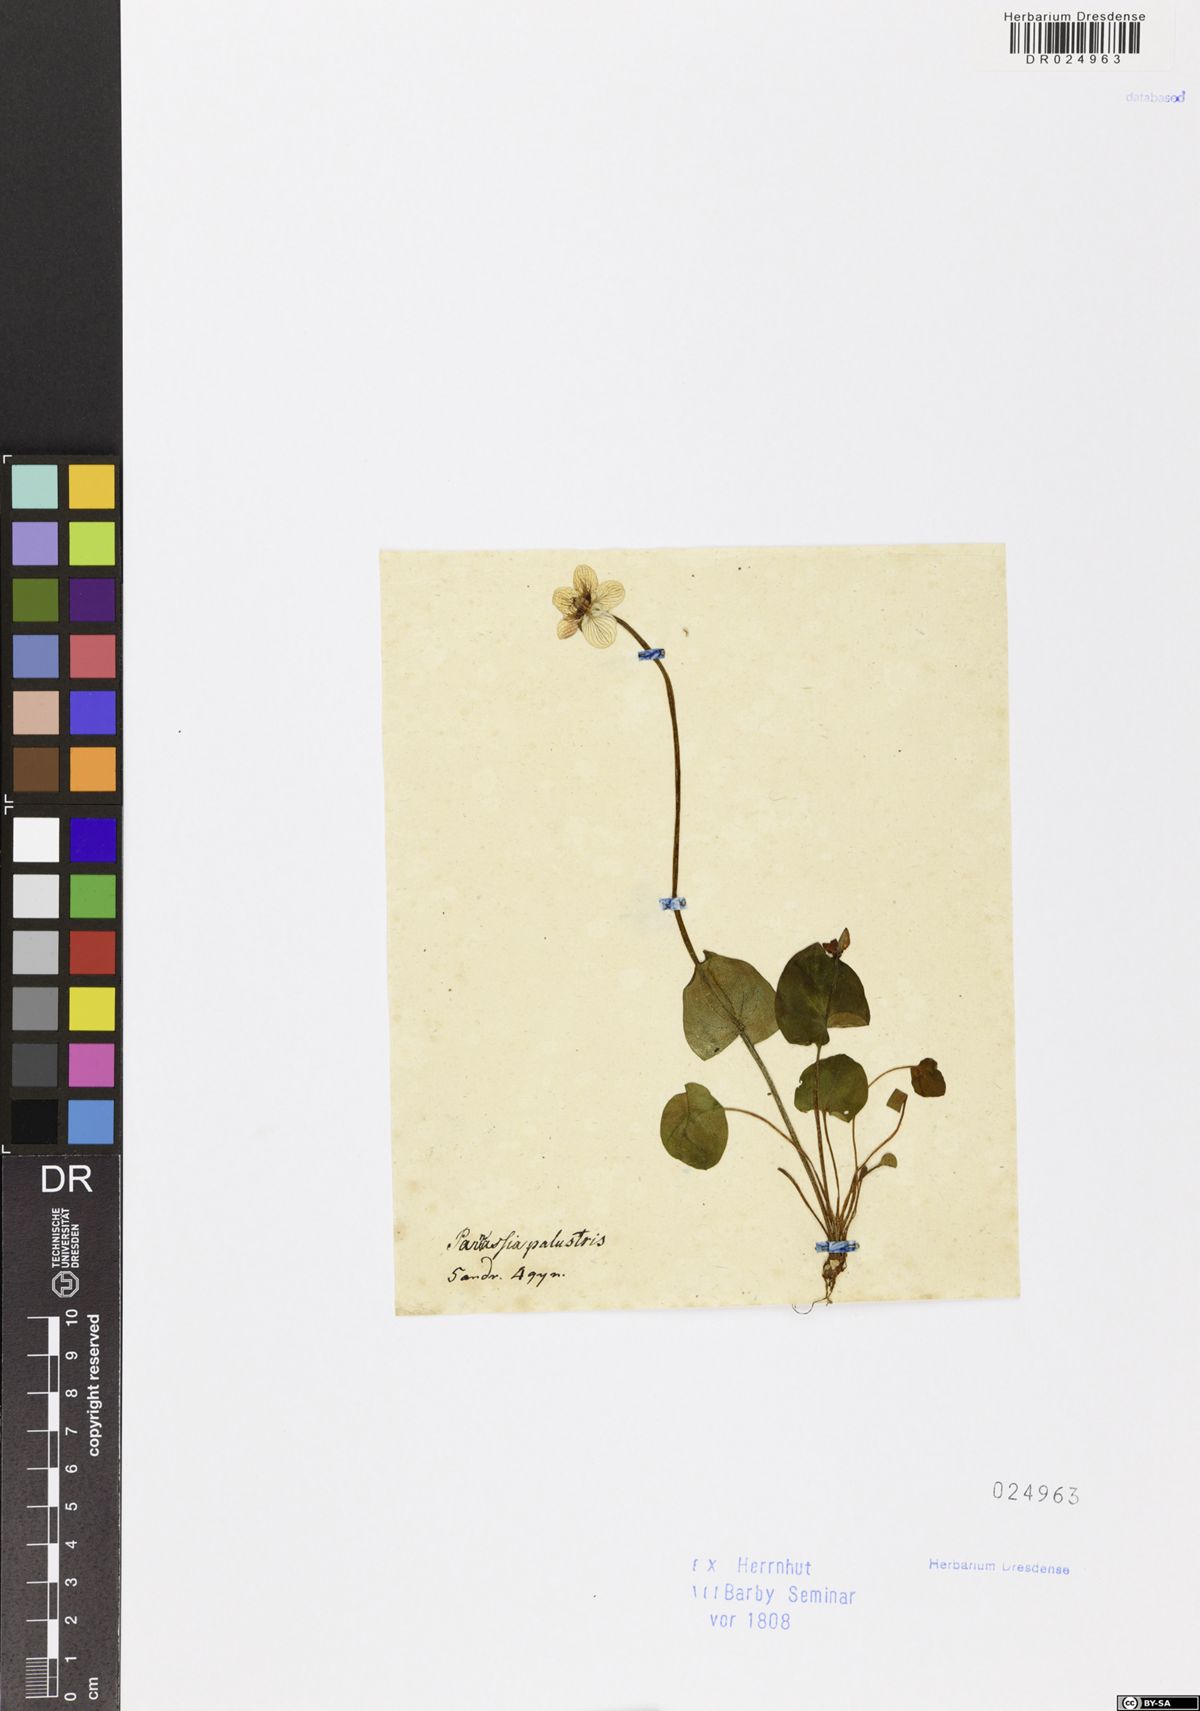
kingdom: Plantae
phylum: Tracheophyta
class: Magnoliopsida
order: Celastrales
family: Parnassiaceae
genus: Parnassia
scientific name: Parnassia palustris
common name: Grass-of-parnassus
